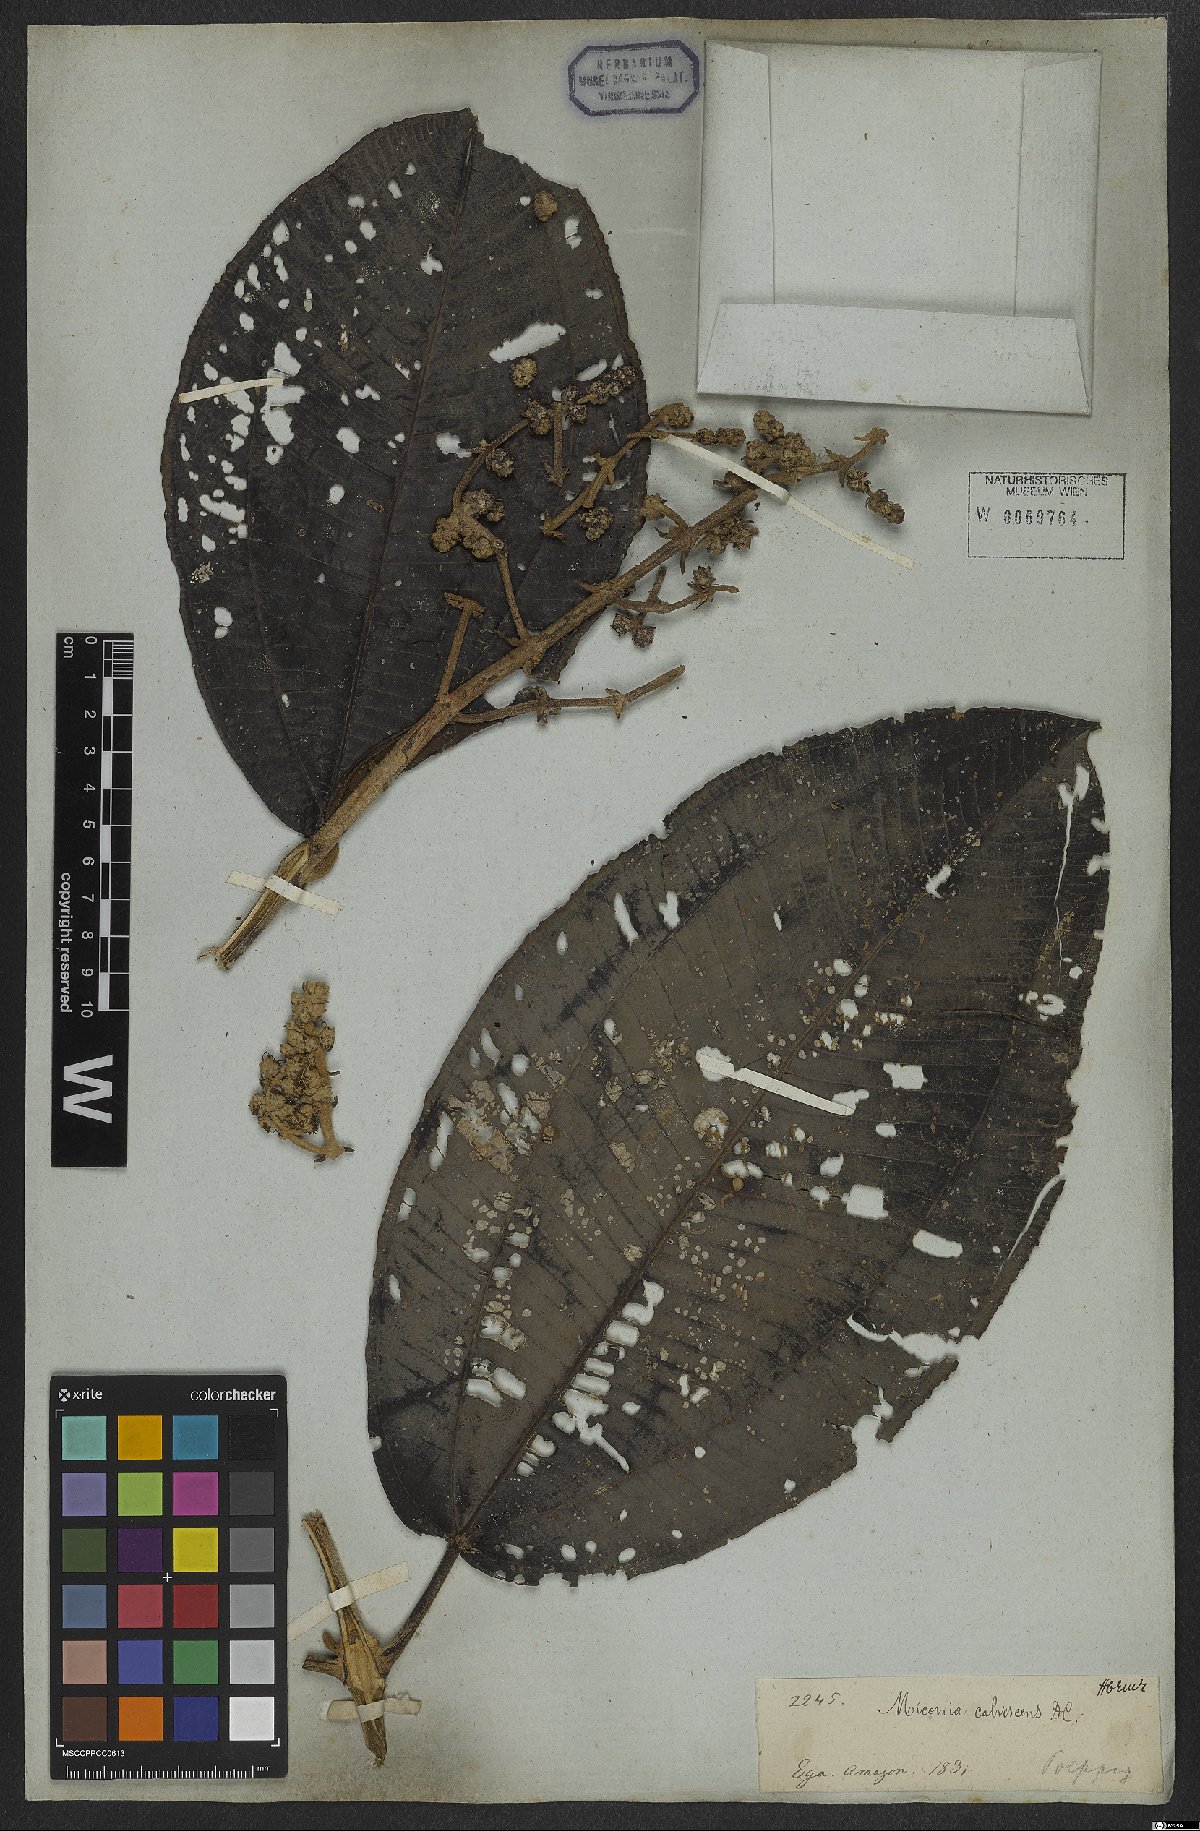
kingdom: Plantae
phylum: Tracheophyta
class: Magnoliopsida
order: Myrtales
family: Melastomataceae
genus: Miconia
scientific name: Miconia calvescens
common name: Purple plague
